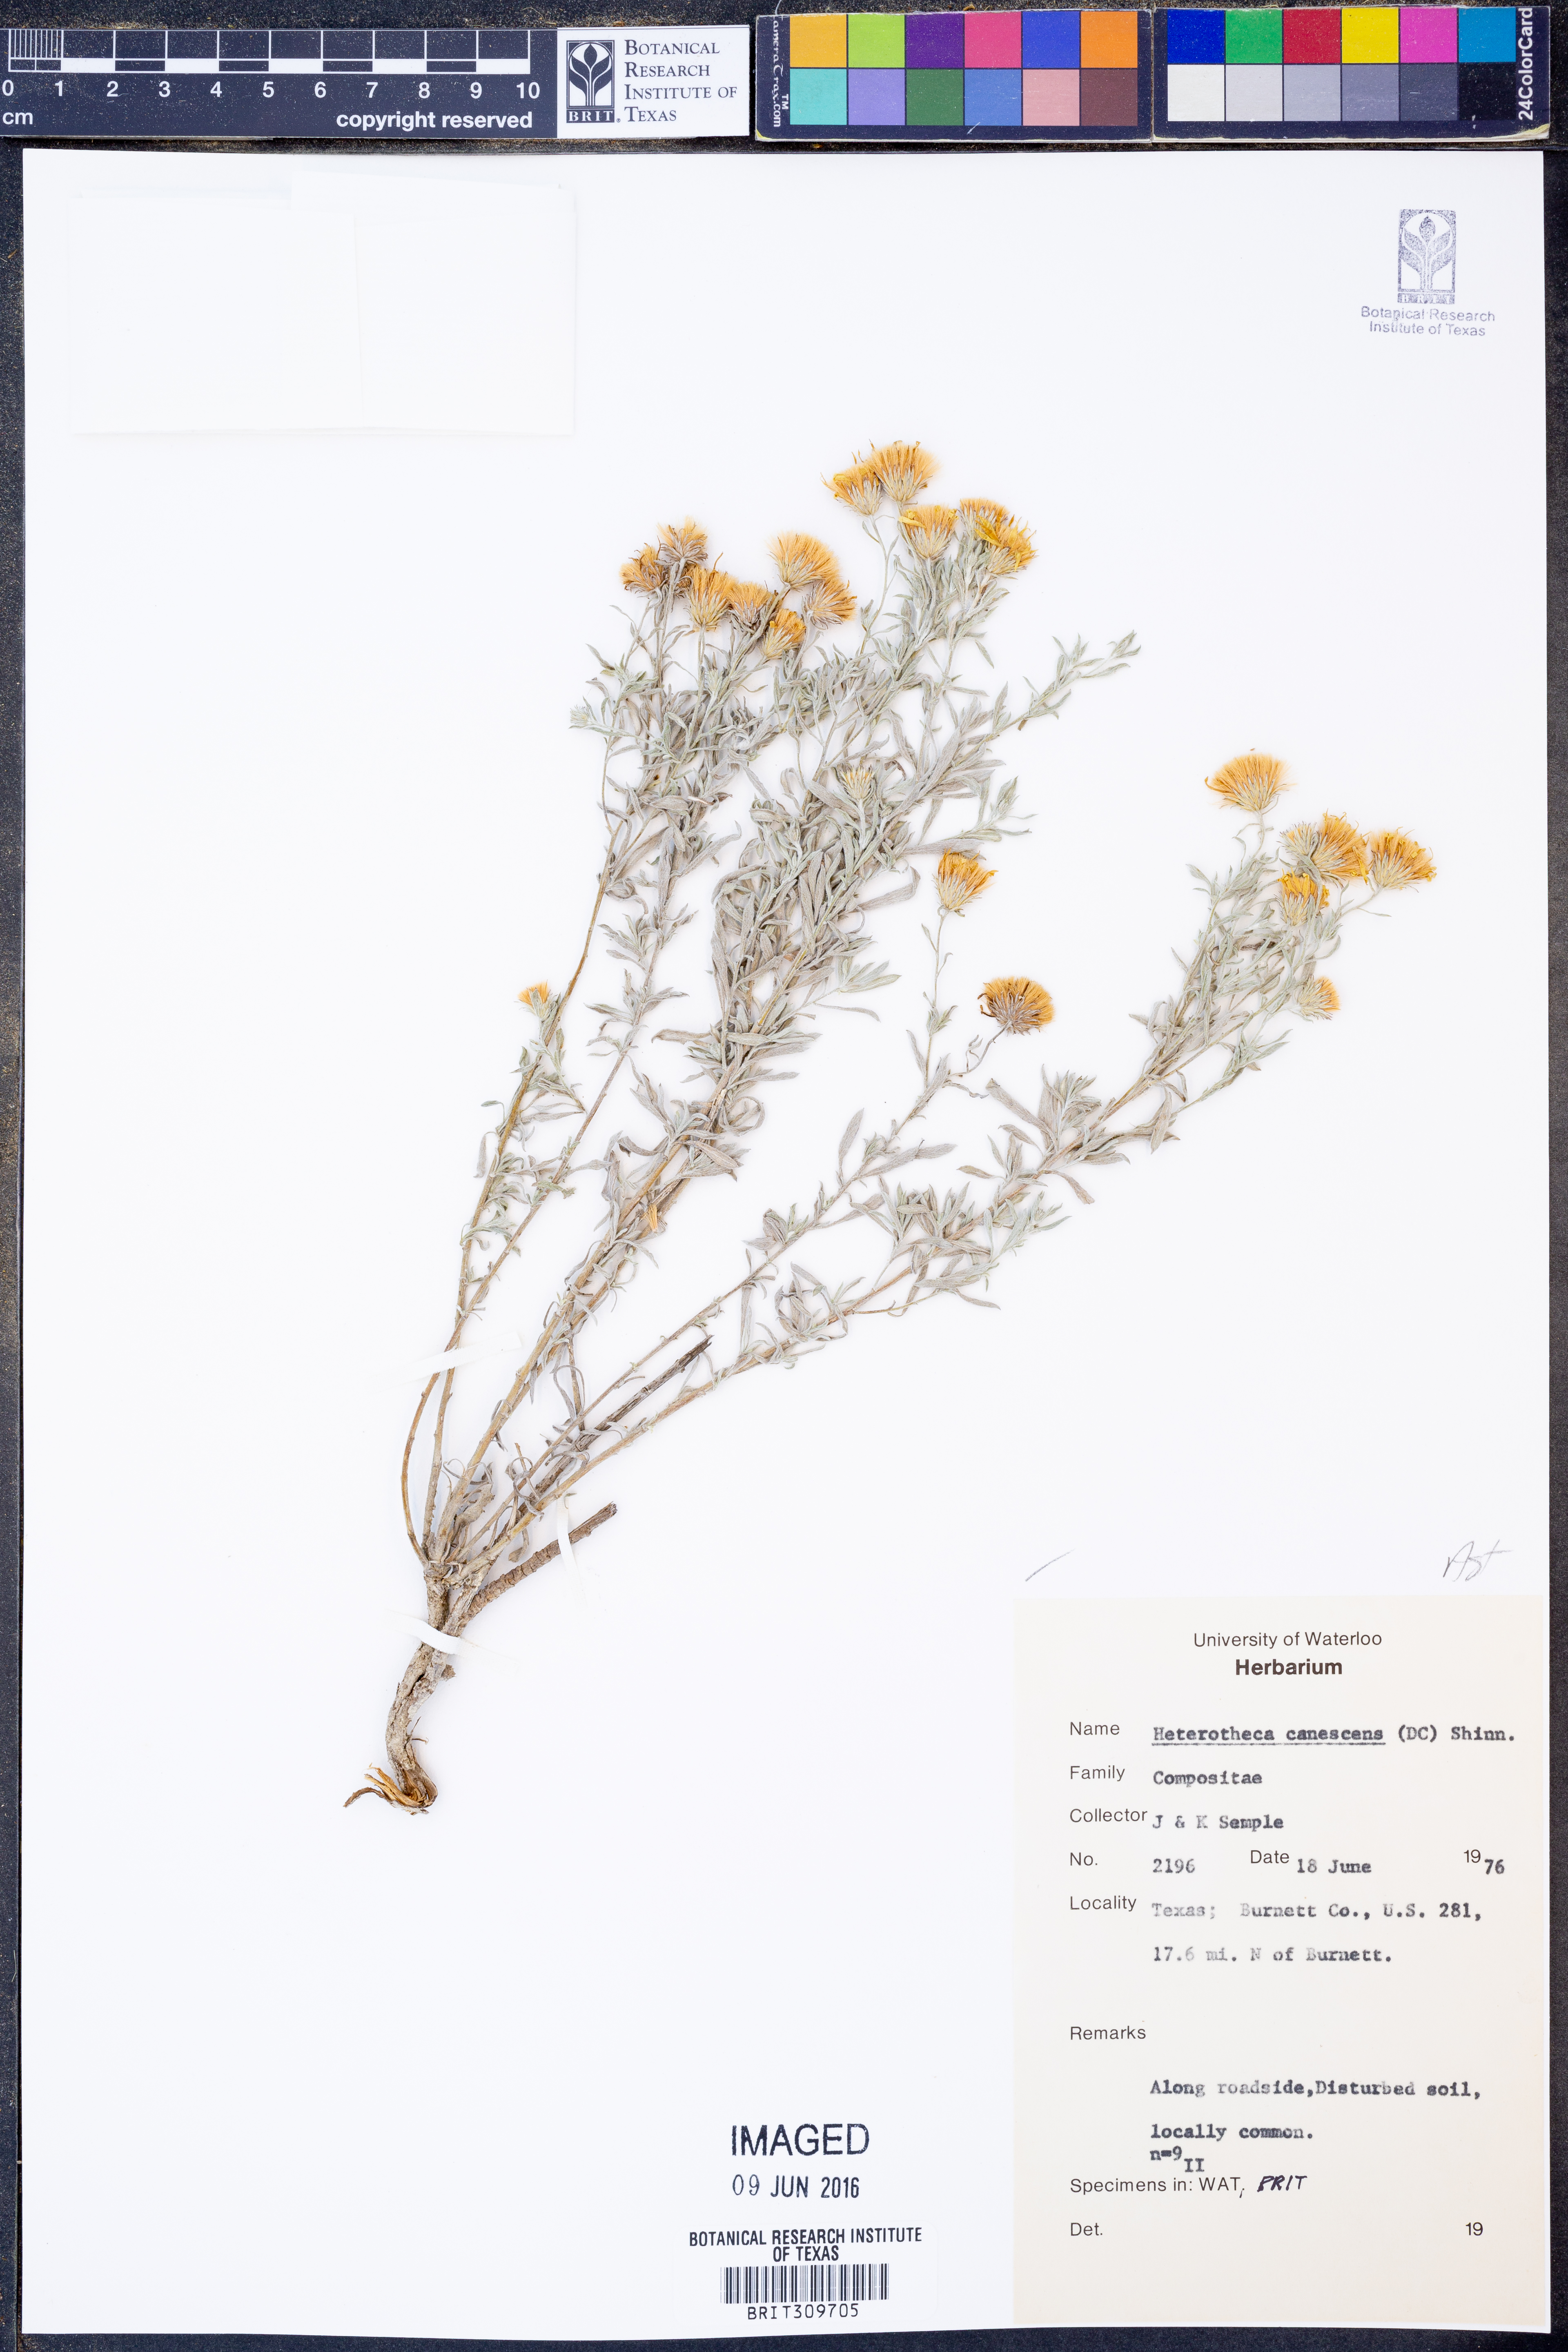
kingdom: Plantae
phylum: Tracheophyta
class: Magnoliopsida
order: Asterales
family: Asteraceae
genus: Heterotheca
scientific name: Heterotheca canescens
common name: Hoary golden-aster
